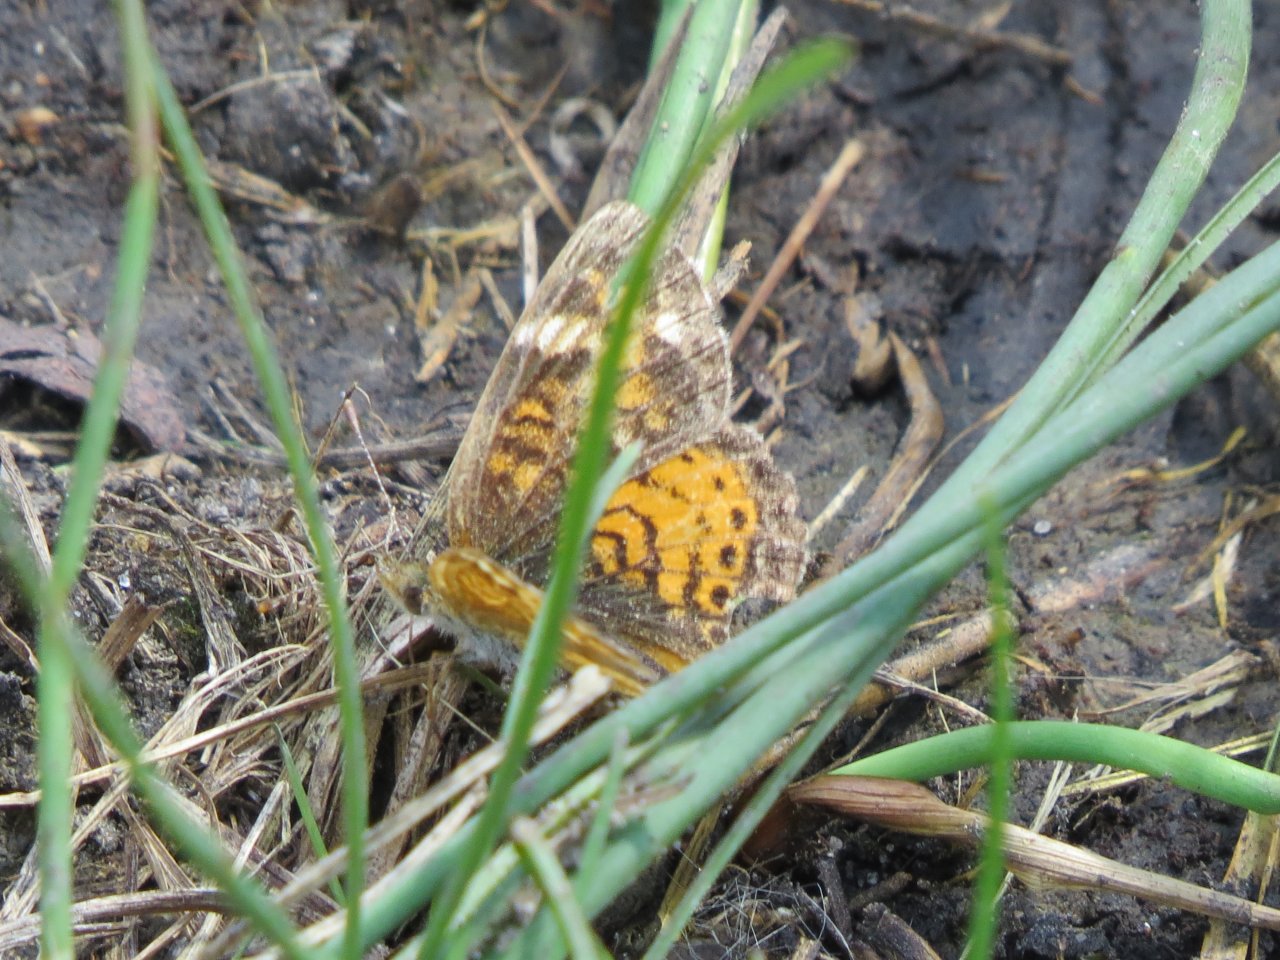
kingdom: Animalia
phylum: Arthropoda
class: Insecta
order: Lepidoptera
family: Nymphalidae
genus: Phyciodes
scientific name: Phyciodes tharos
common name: Northern Crescent
